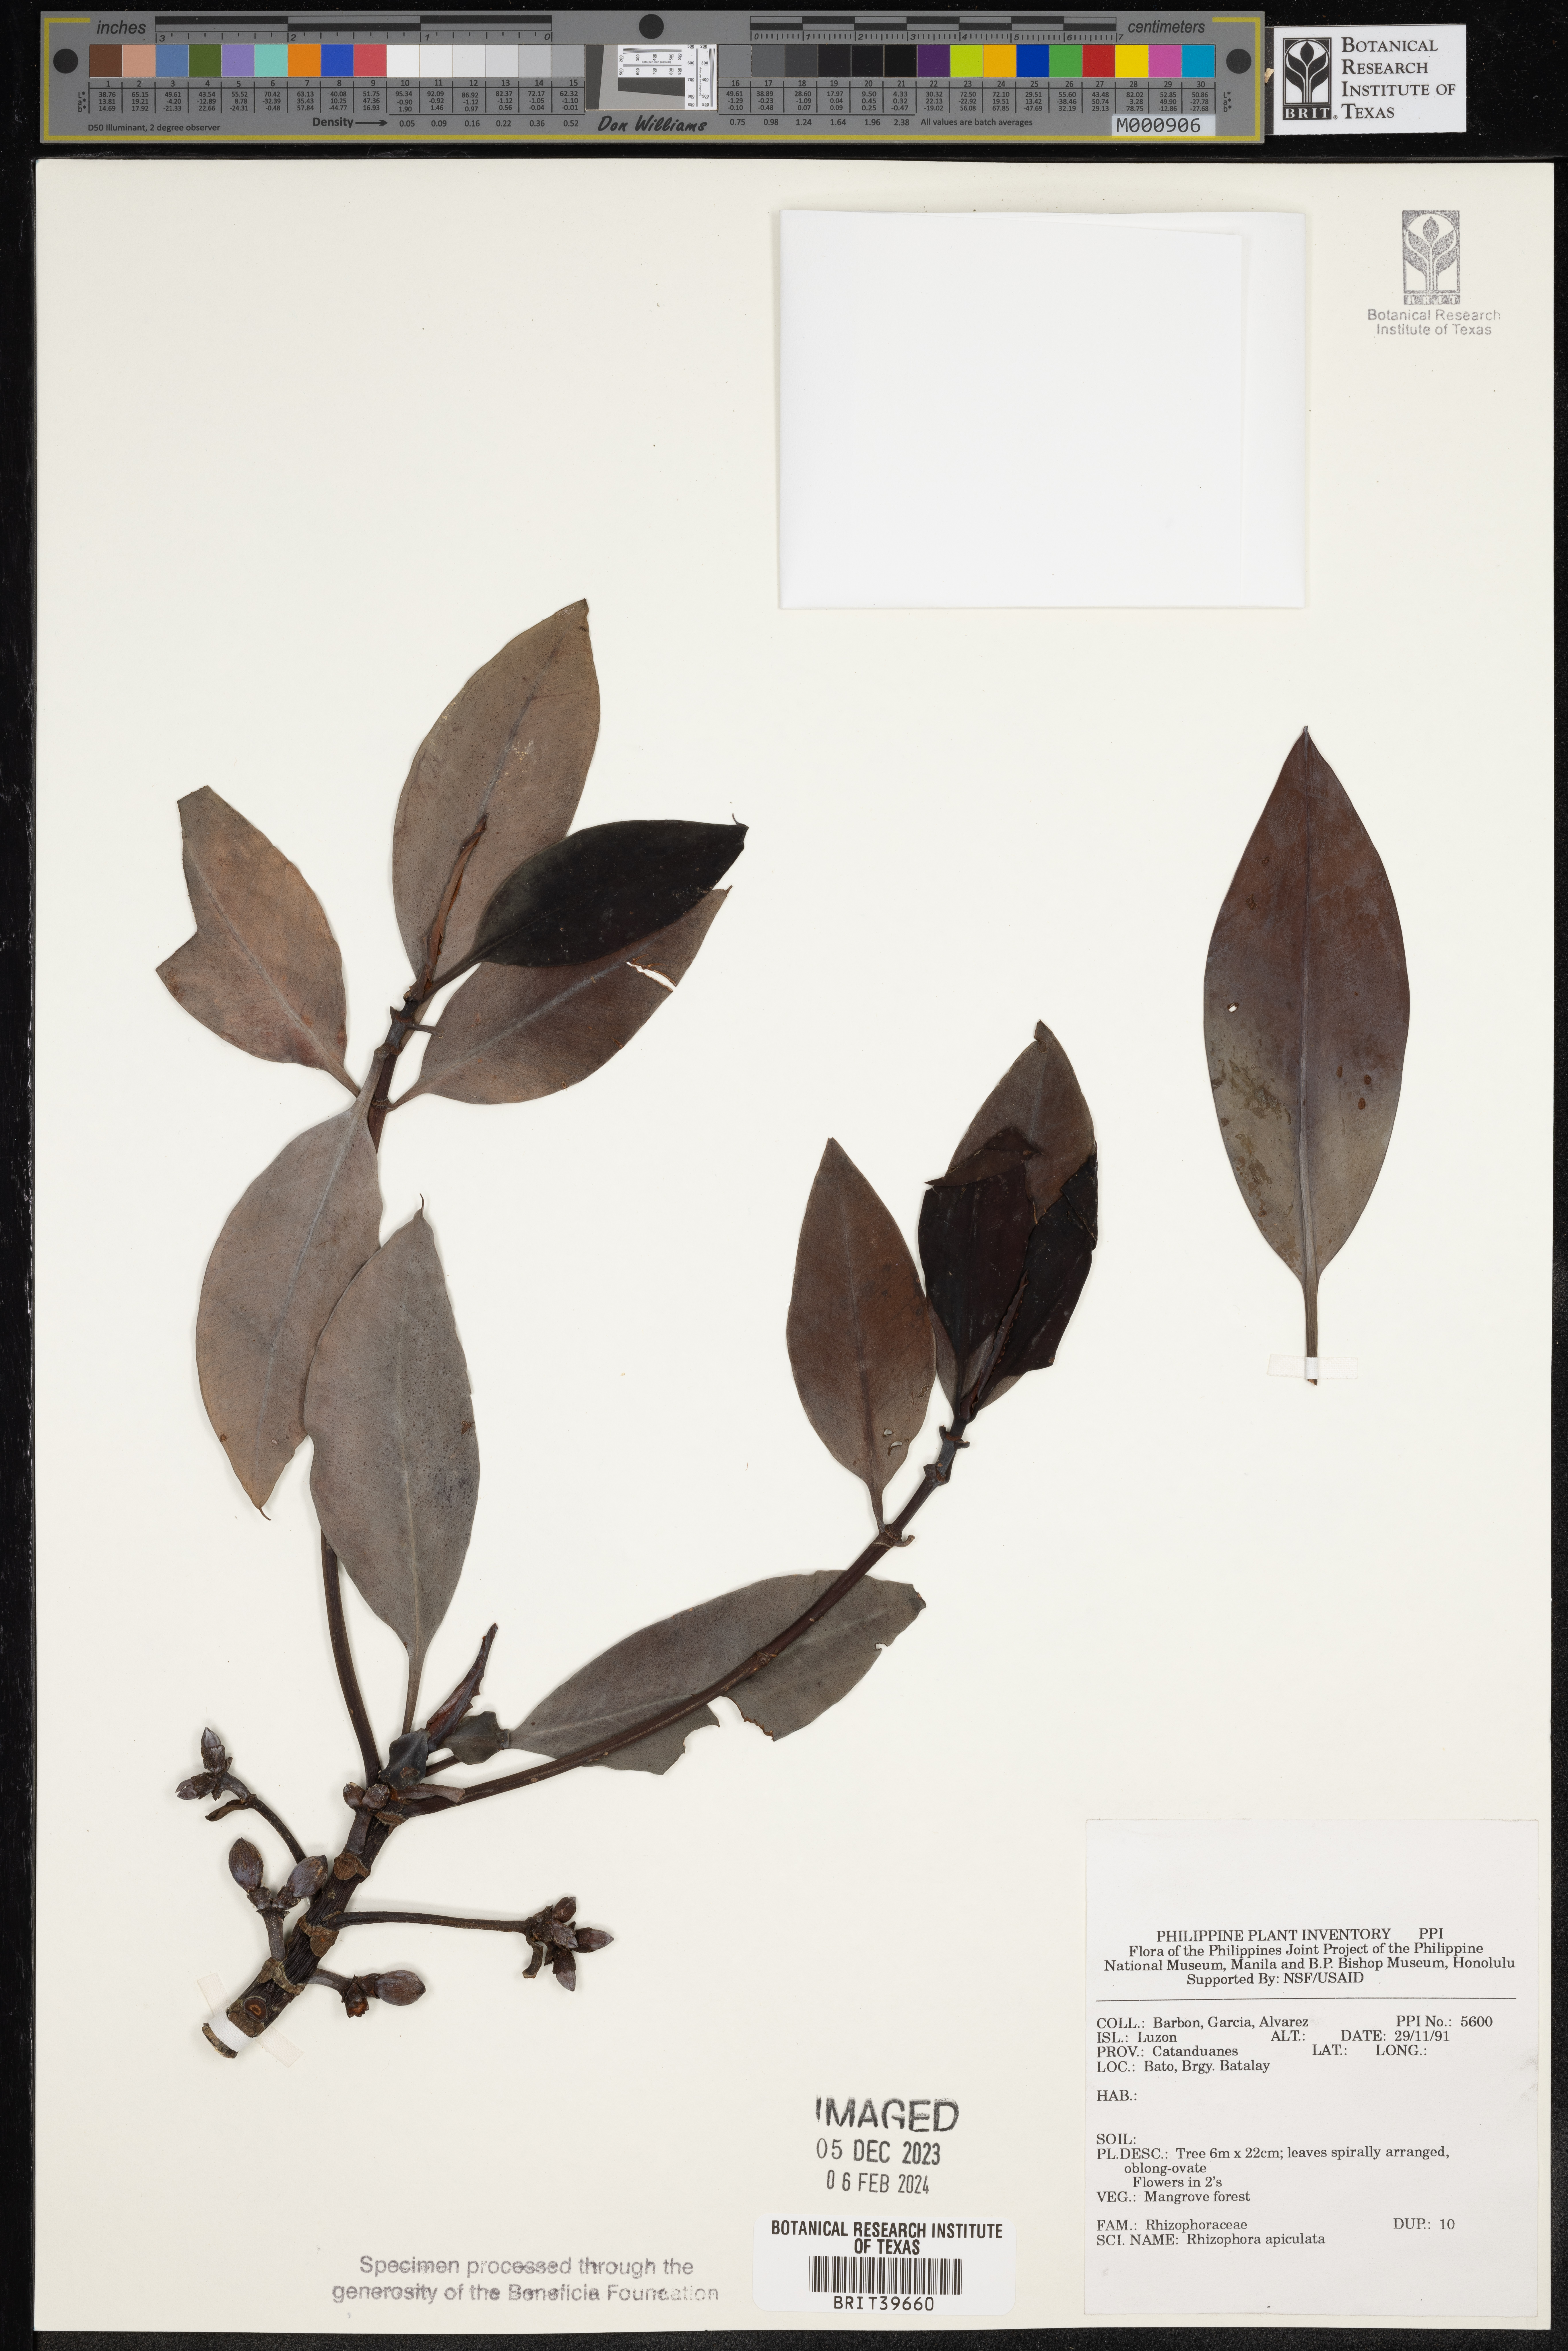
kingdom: Plantae
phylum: Tracheophyta
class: Magnoliopsida
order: Malpighiales
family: Rhizophoraceae
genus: Rhizophora
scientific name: Rhizophora apiculata
